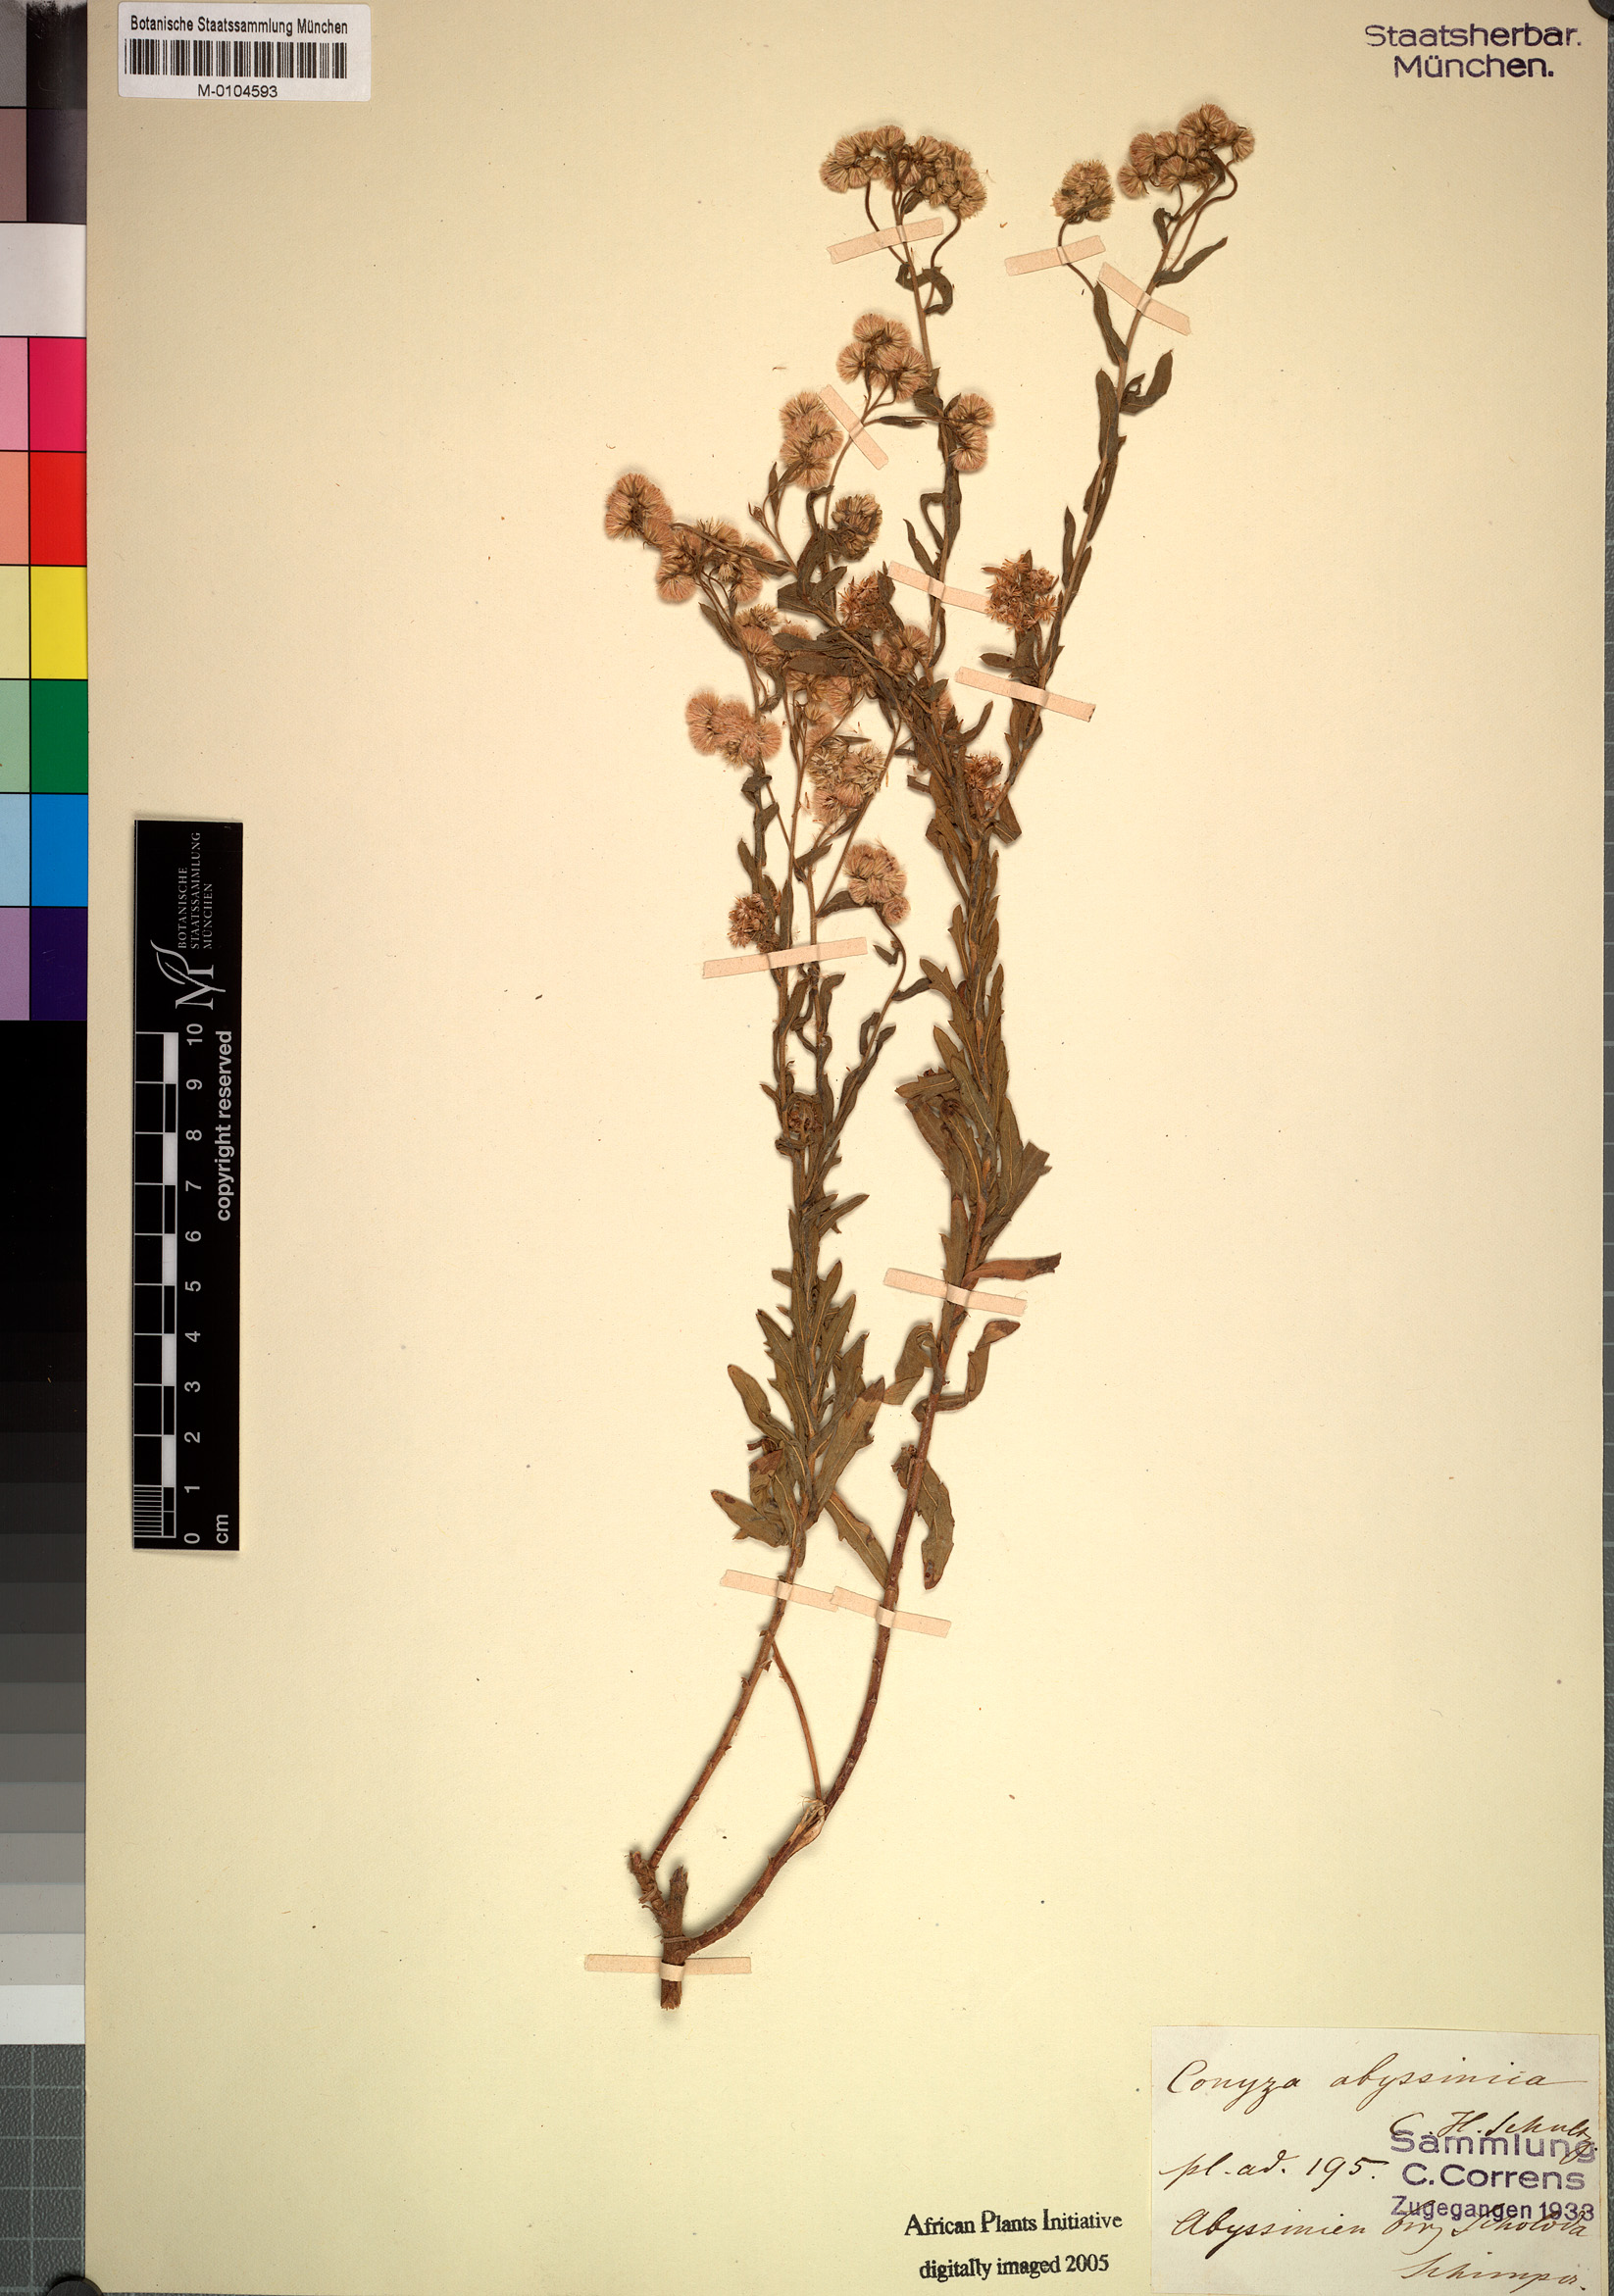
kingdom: Plantae
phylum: Tracheophyta
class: Magnoliopsida
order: Asterales
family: Asteraceae
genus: Conyza
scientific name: Conyza abyssinica
